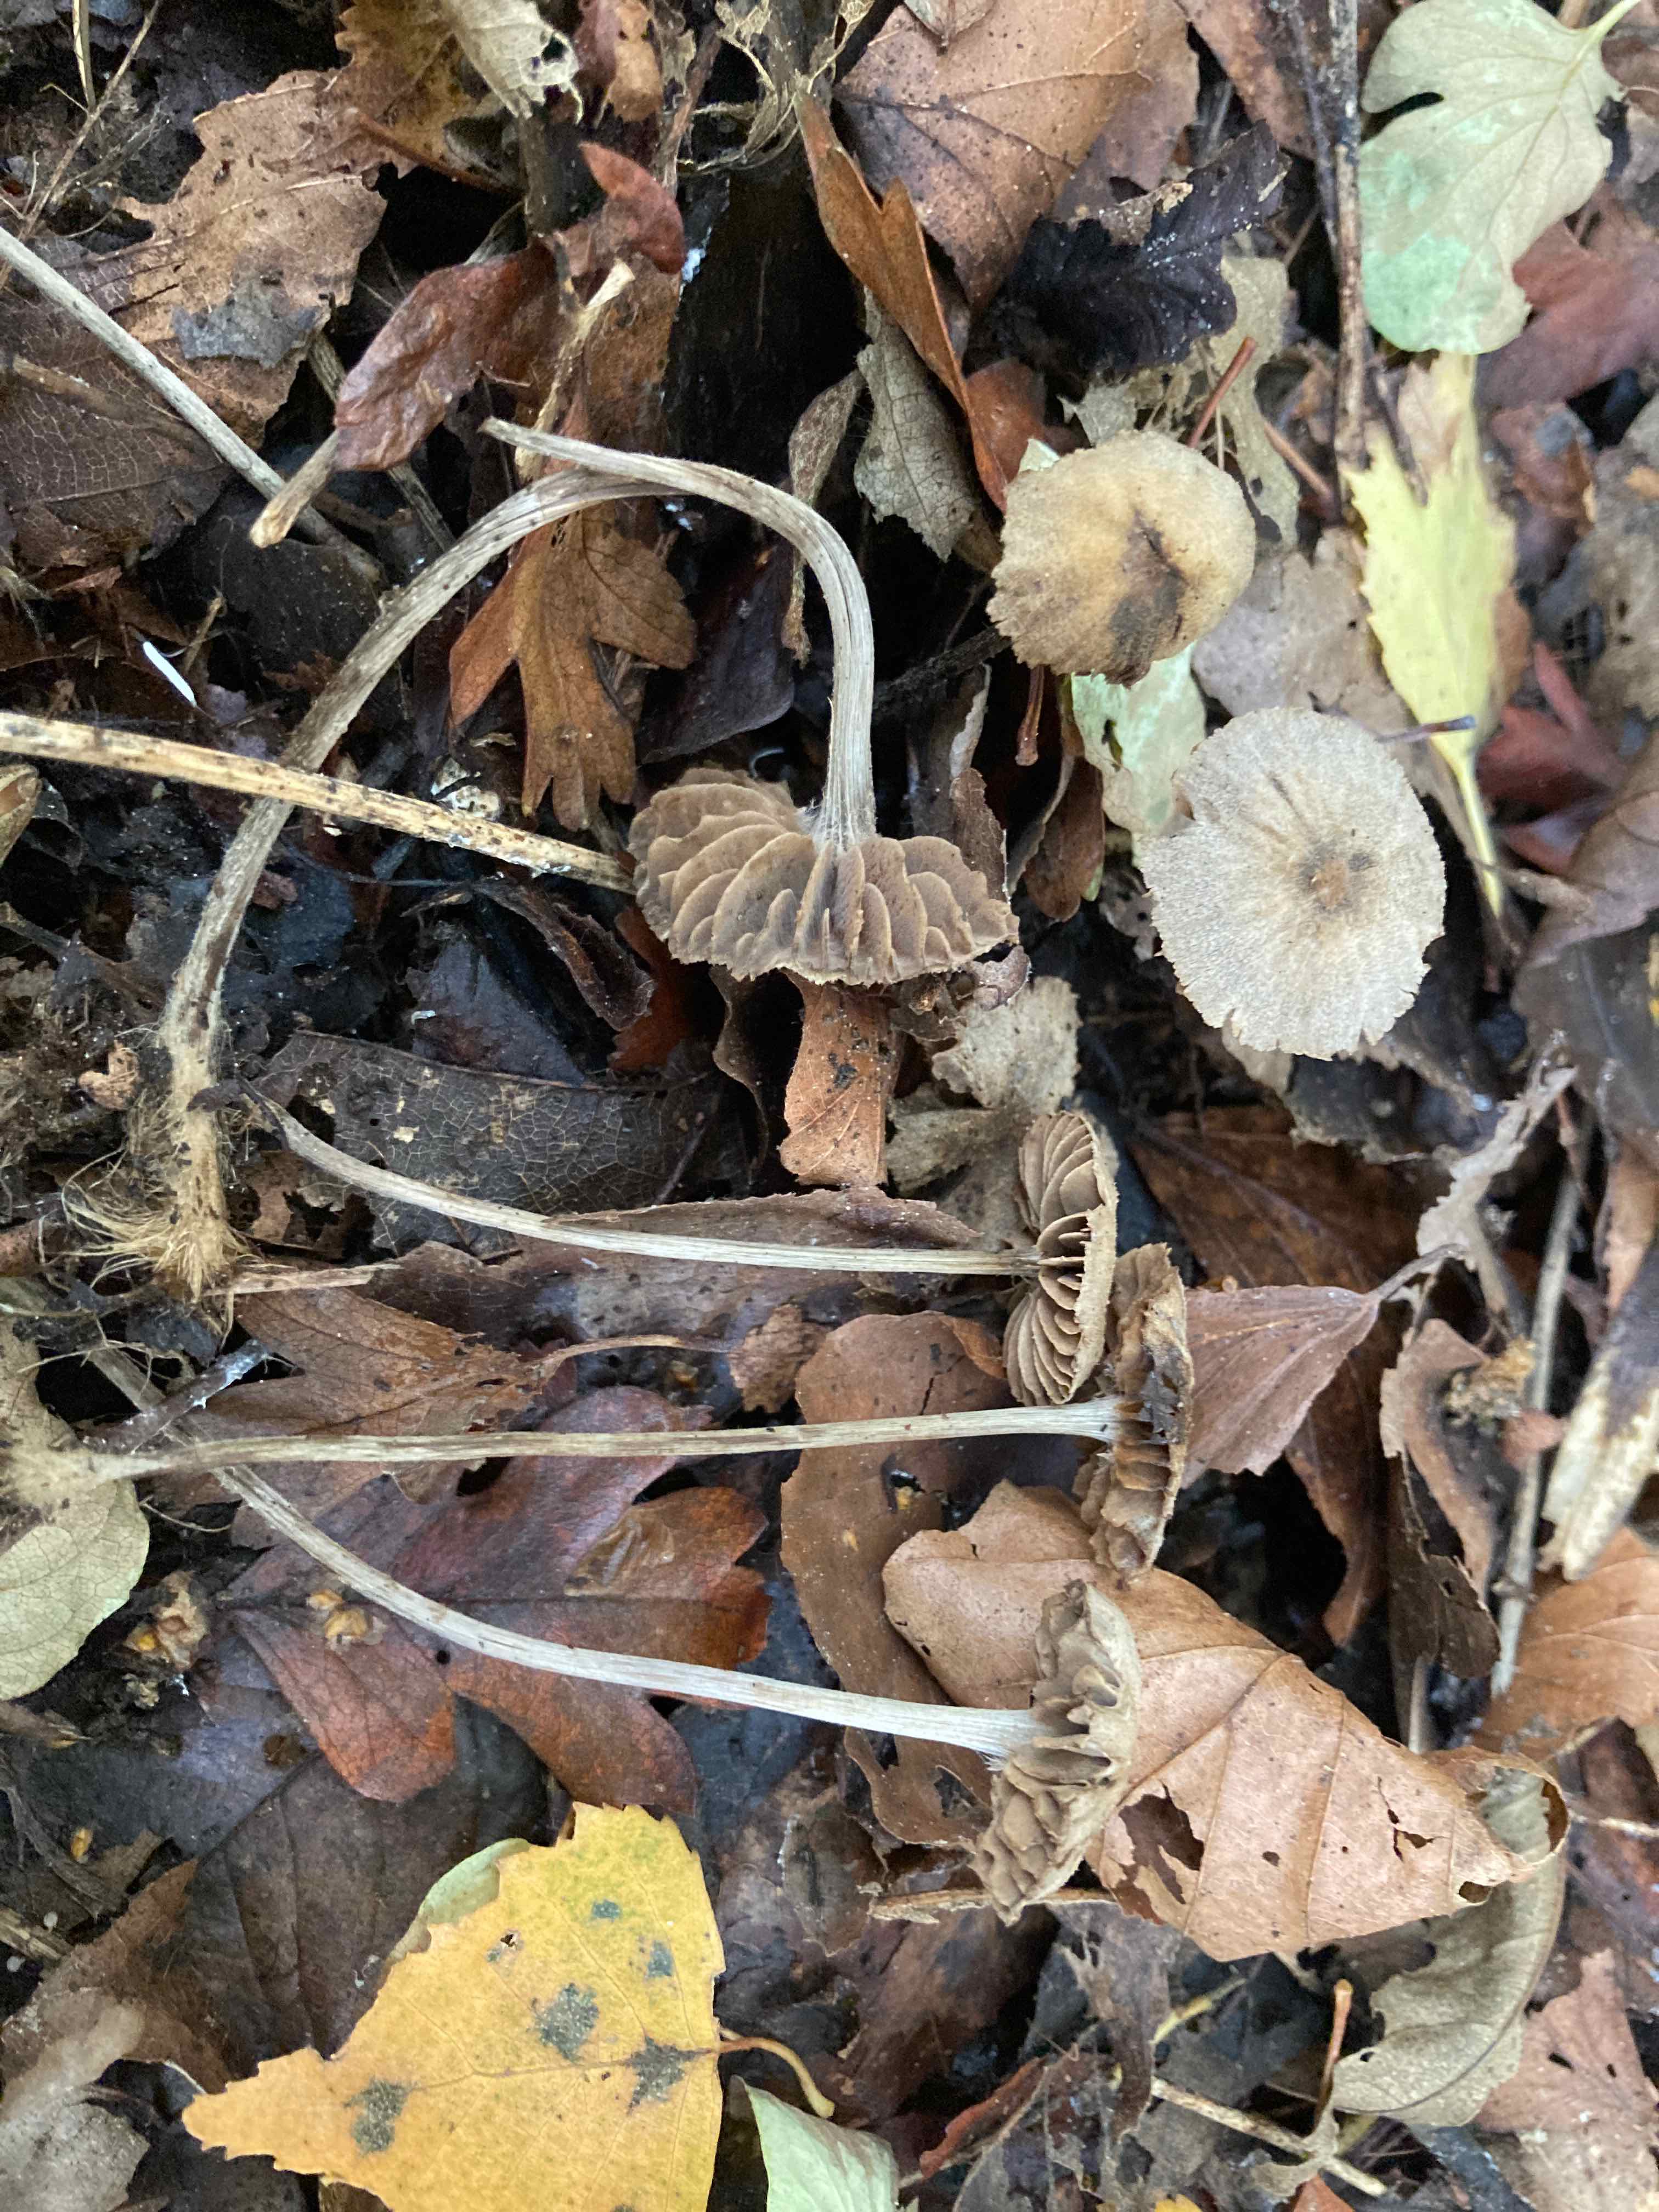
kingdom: Fungi
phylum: Basidiomycota
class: Agaricomycetes
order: Agaricales
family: Entolomataceae
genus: Entoloma
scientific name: Entoloma dysthaloides
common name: dyster rødblad
